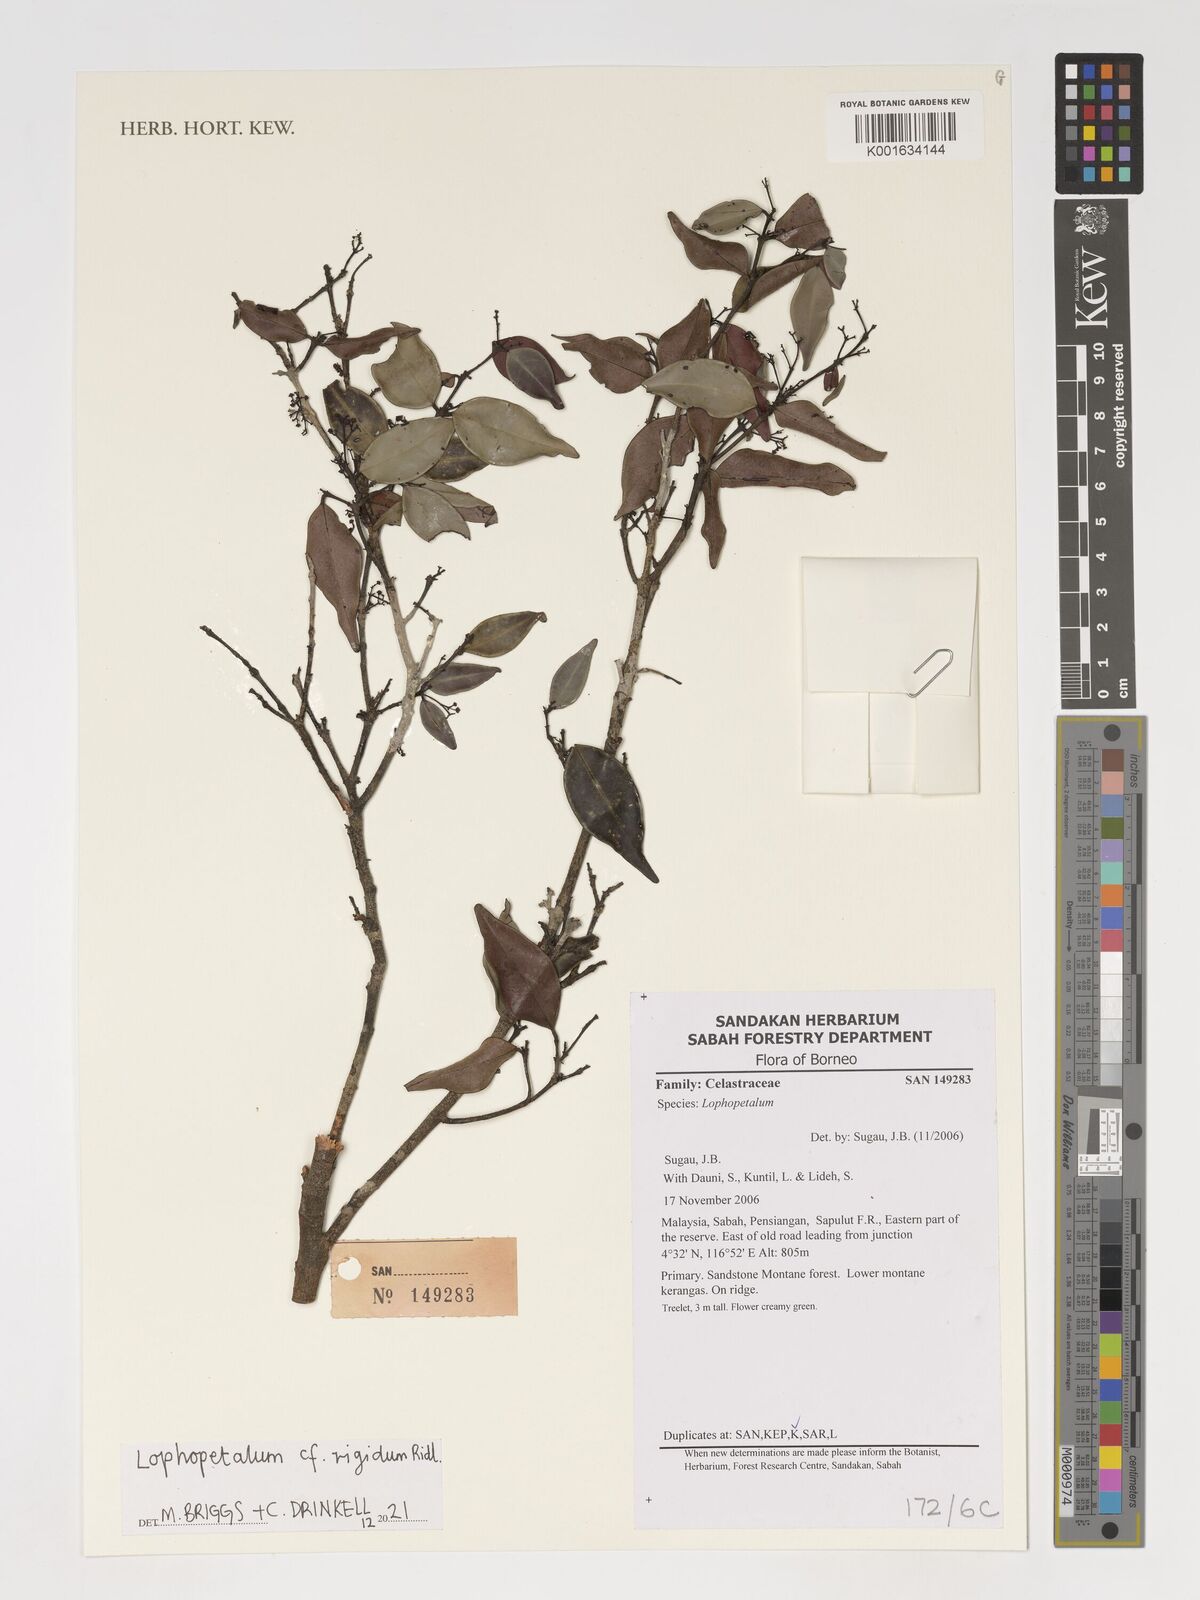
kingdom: Plantae
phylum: Tracheophyta
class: Magnoliopsida
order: Celastrales
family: Celastraceae
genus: Lophopetalum
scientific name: Lophopetalum rigidum
